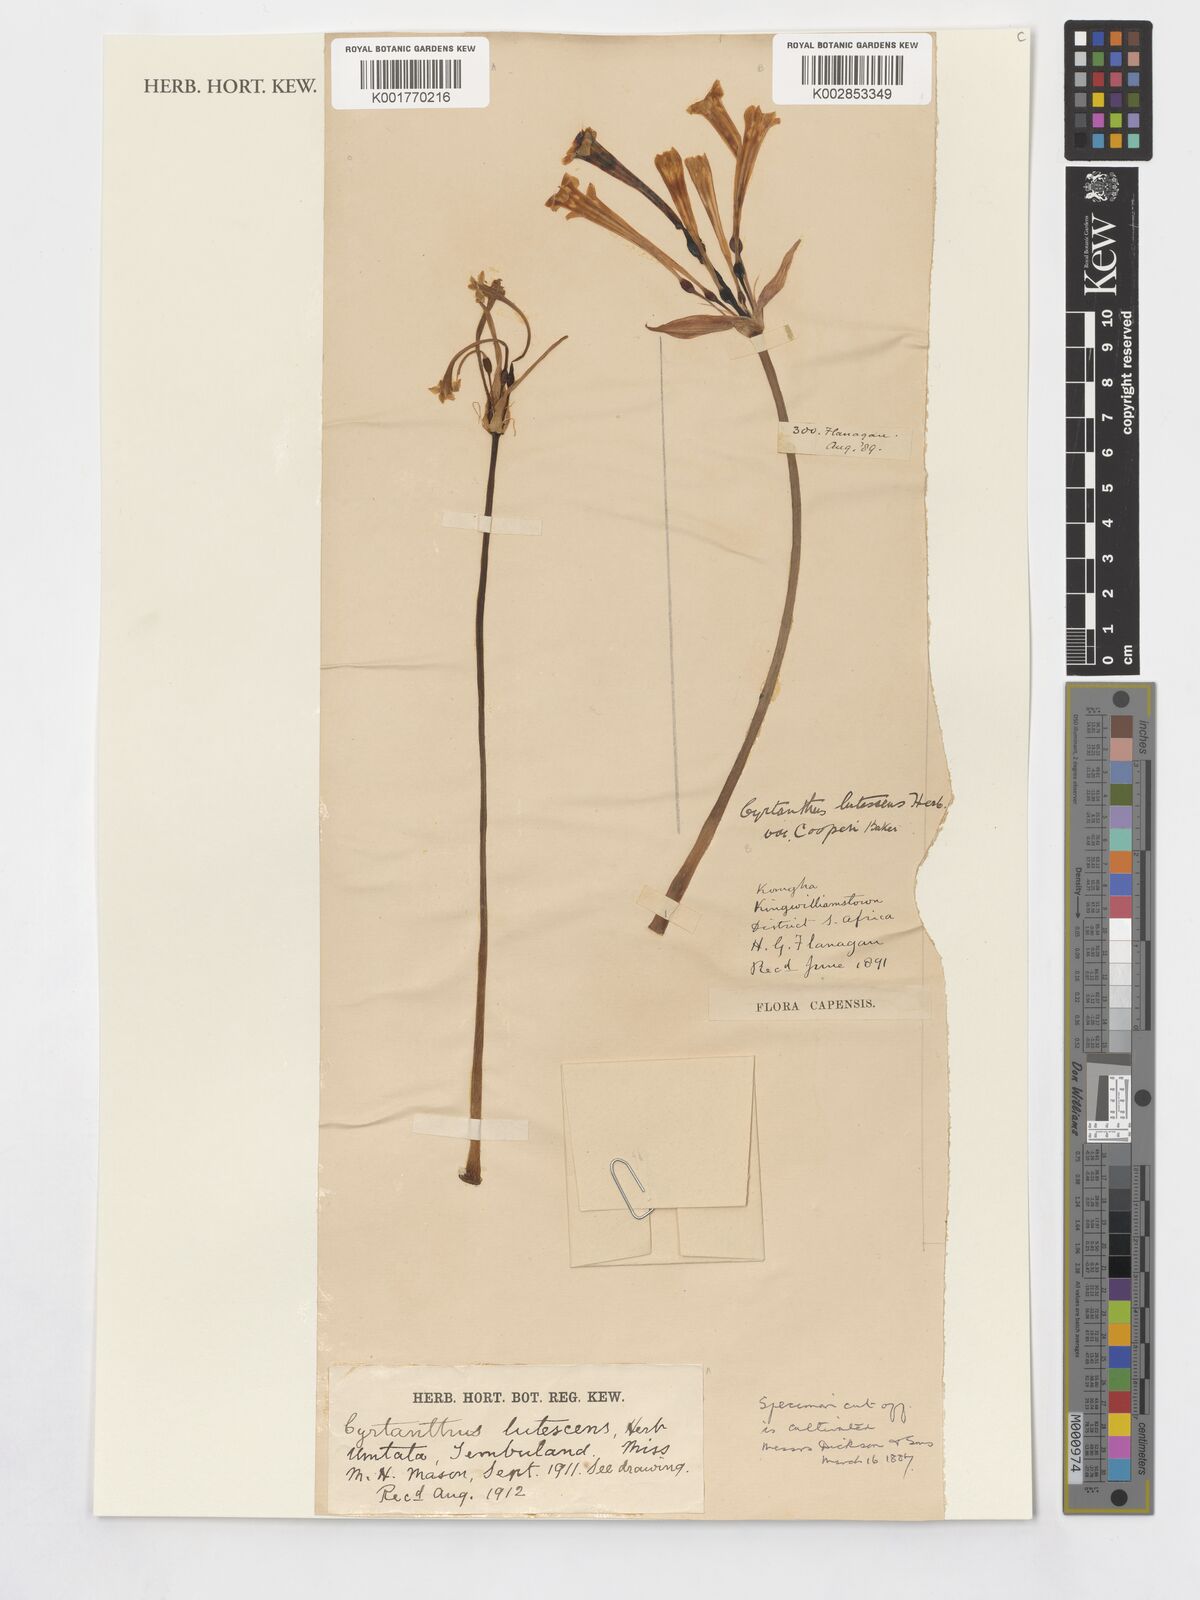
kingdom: Plantae
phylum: Tracheophyta
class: Liliopsida
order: Asparagales
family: Amaryllidaceae
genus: Cyrtanthus
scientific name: Cyrtanthus mackenii
